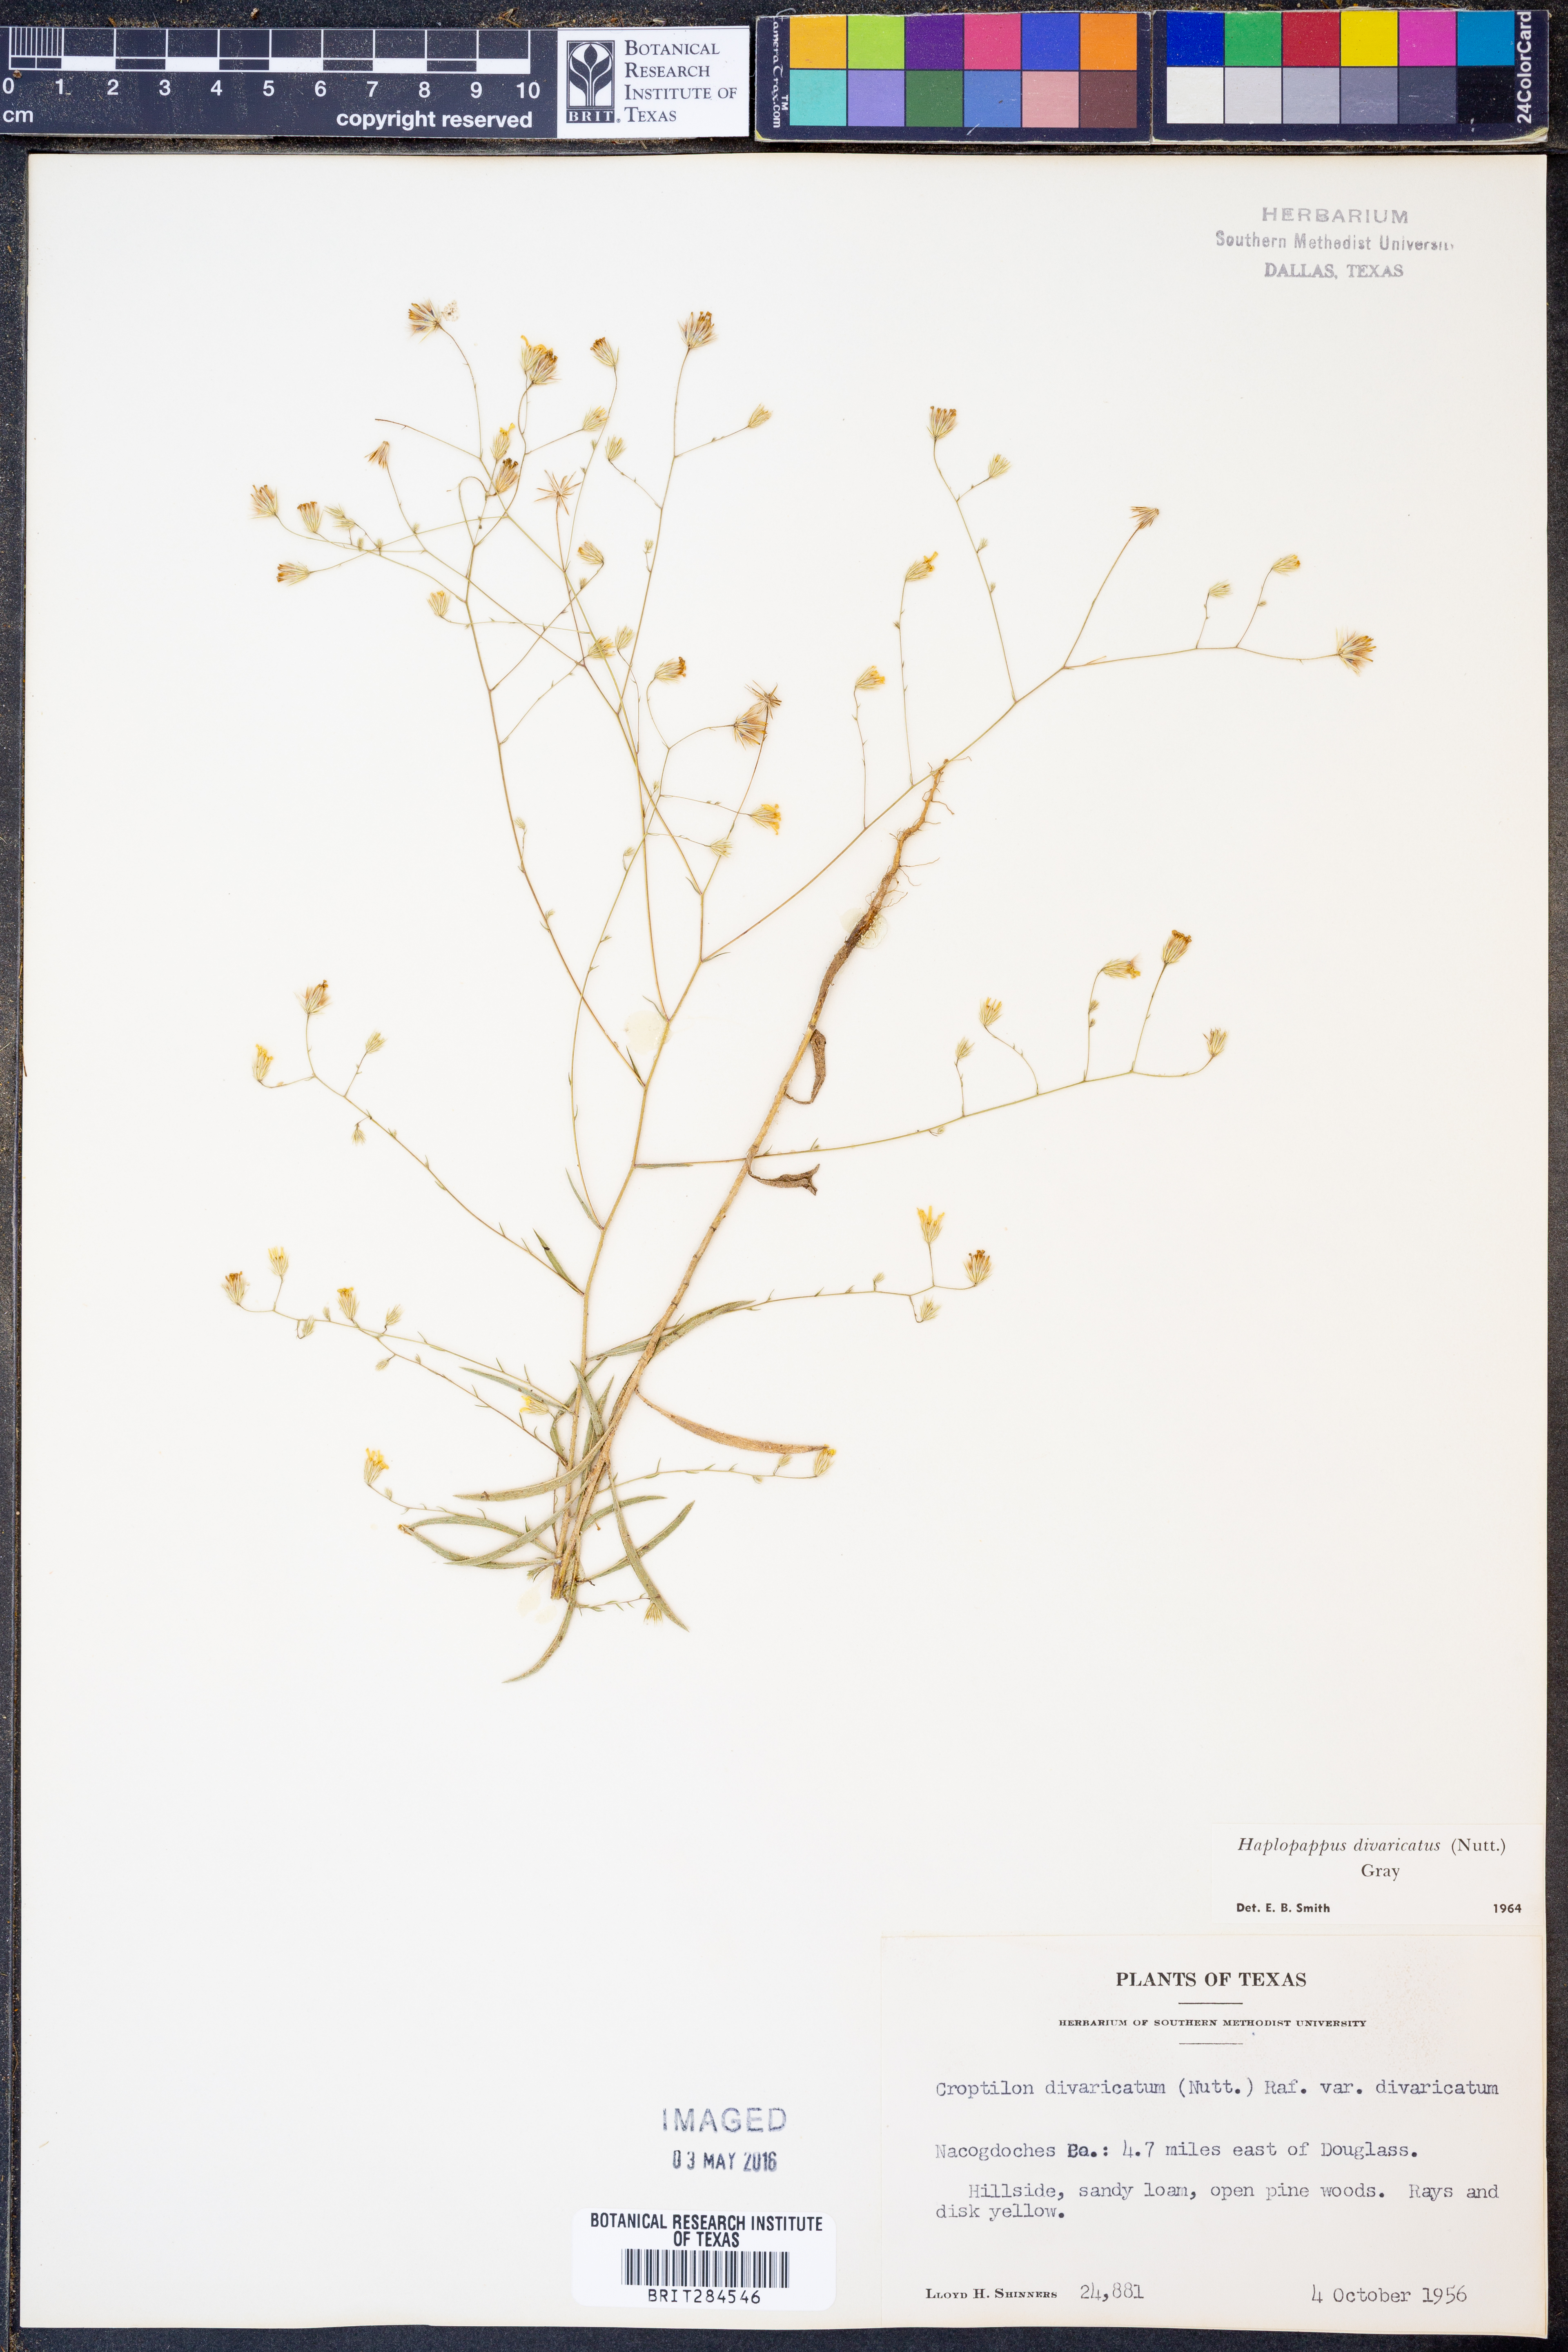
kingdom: Plantae
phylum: Tracheophyta
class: Magnoliopsida
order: Asterales
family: Asteraceae
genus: Croptilon
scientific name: Croptilon divaricatum
